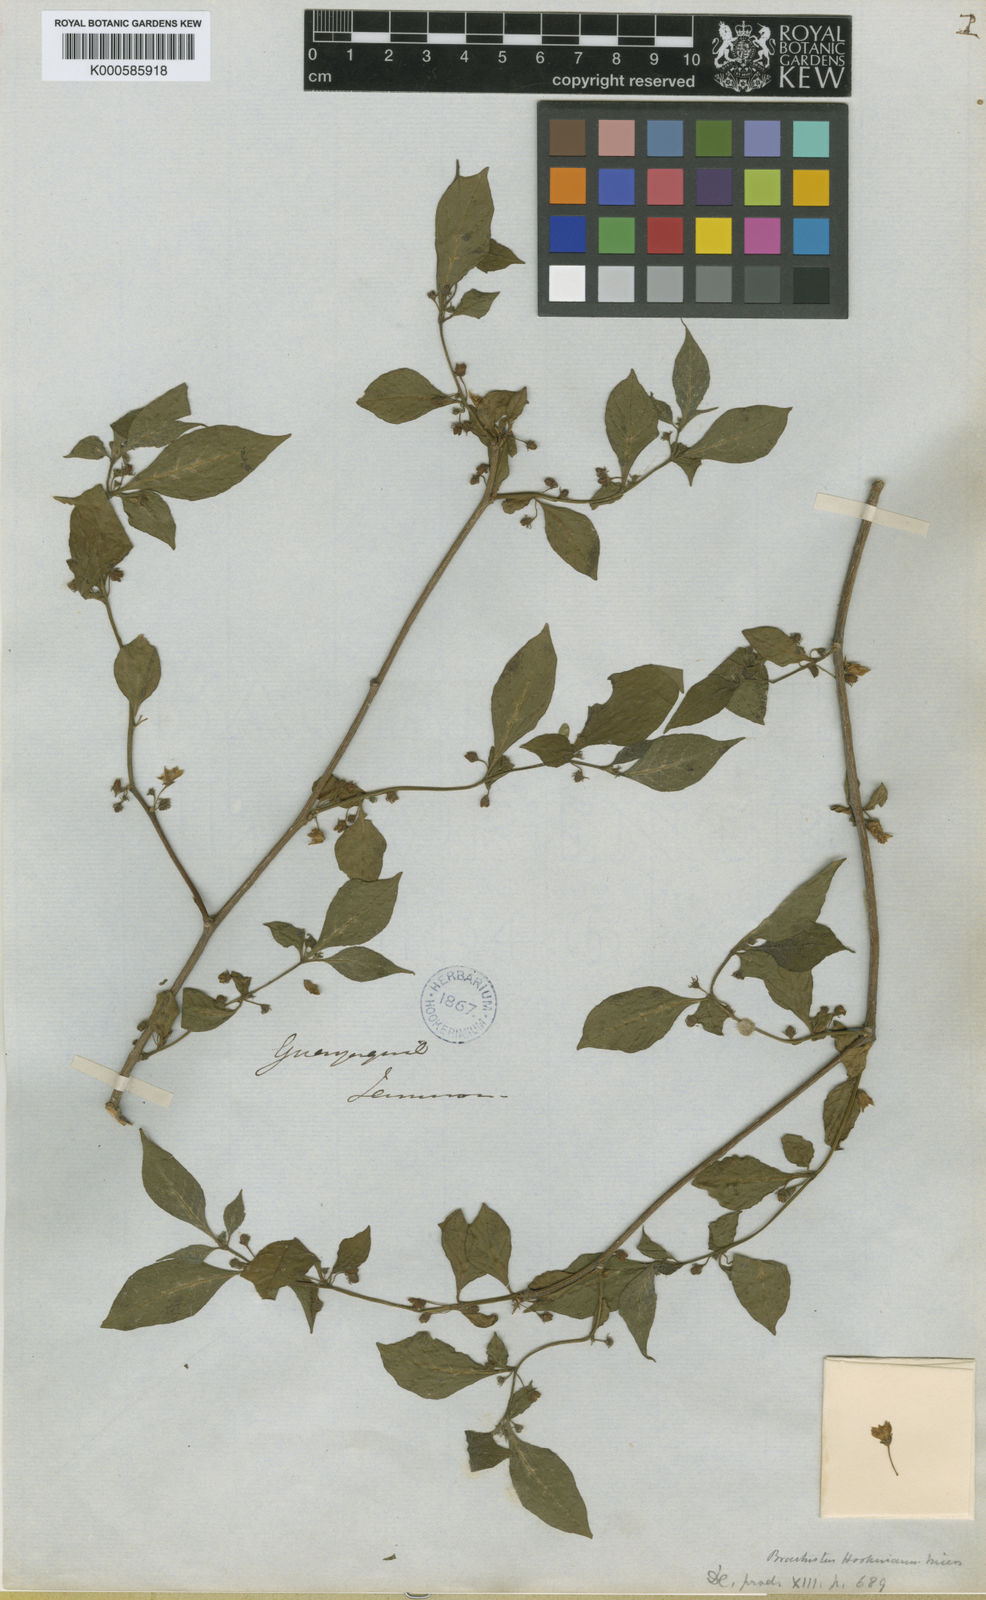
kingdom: Plantae
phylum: Tracheophyta
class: Magnoliopsida
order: Solanales
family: Solanaceae
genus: Capsicum
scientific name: Capsicum hookerianum
